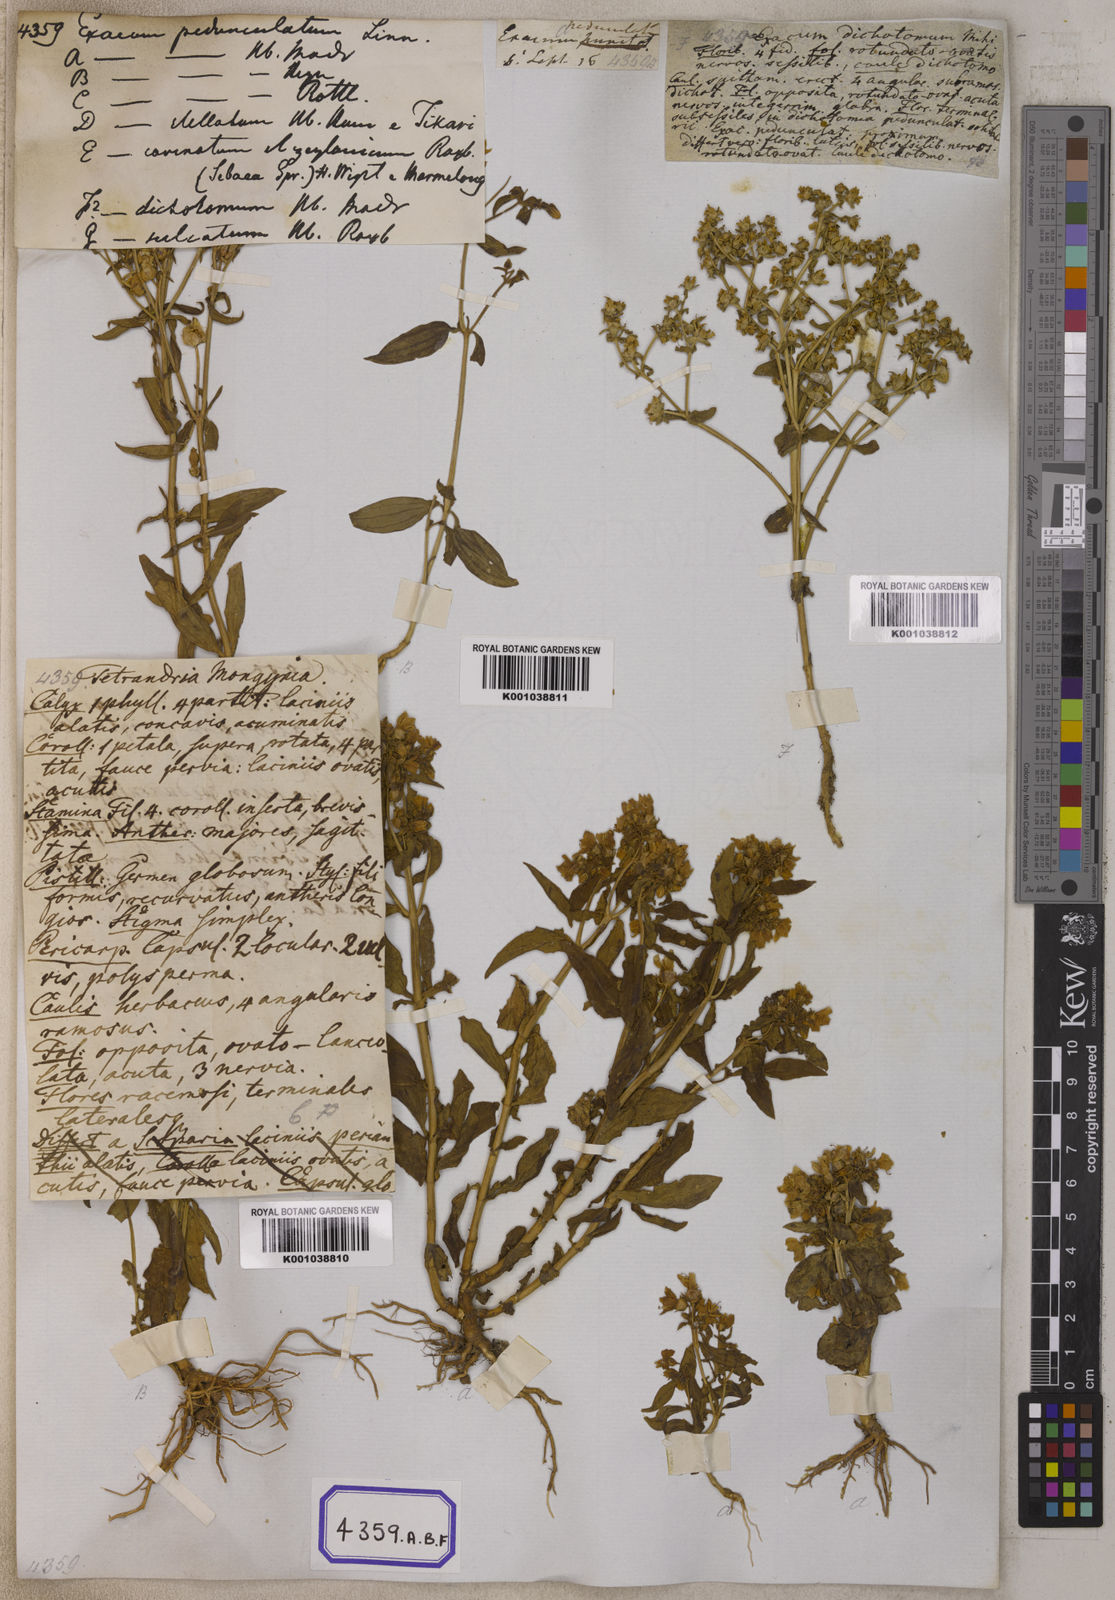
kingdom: Plantae
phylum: Tracheophyta
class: Magnoliopsida
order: Gentianales
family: Gentianaceae
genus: Exacum
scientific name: Exacum pedunculatum
